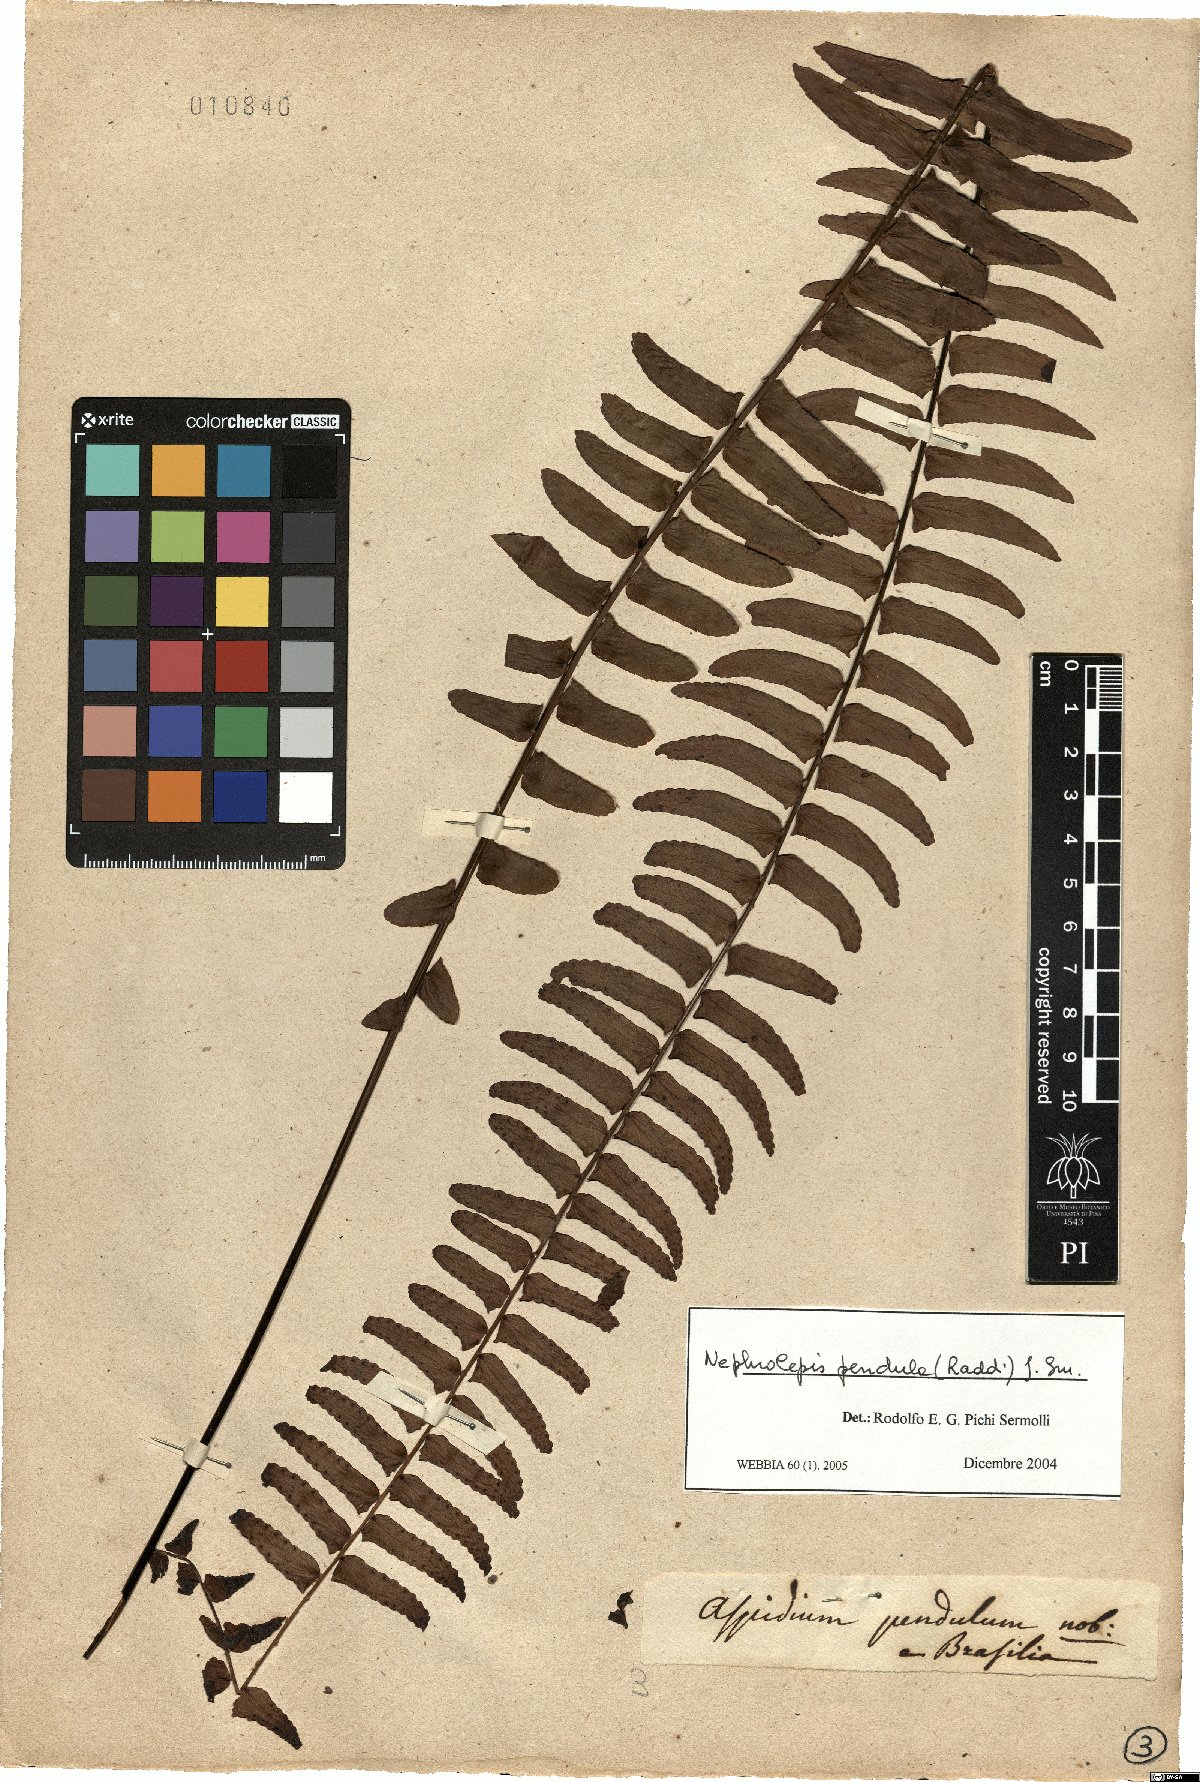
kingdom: Plantae
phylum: Tracheophyta
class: Polypodiopsida
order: Polypodiales
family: Nephrolepidaceae
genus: Nephrolepis
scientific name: Nephrolepis pendula
